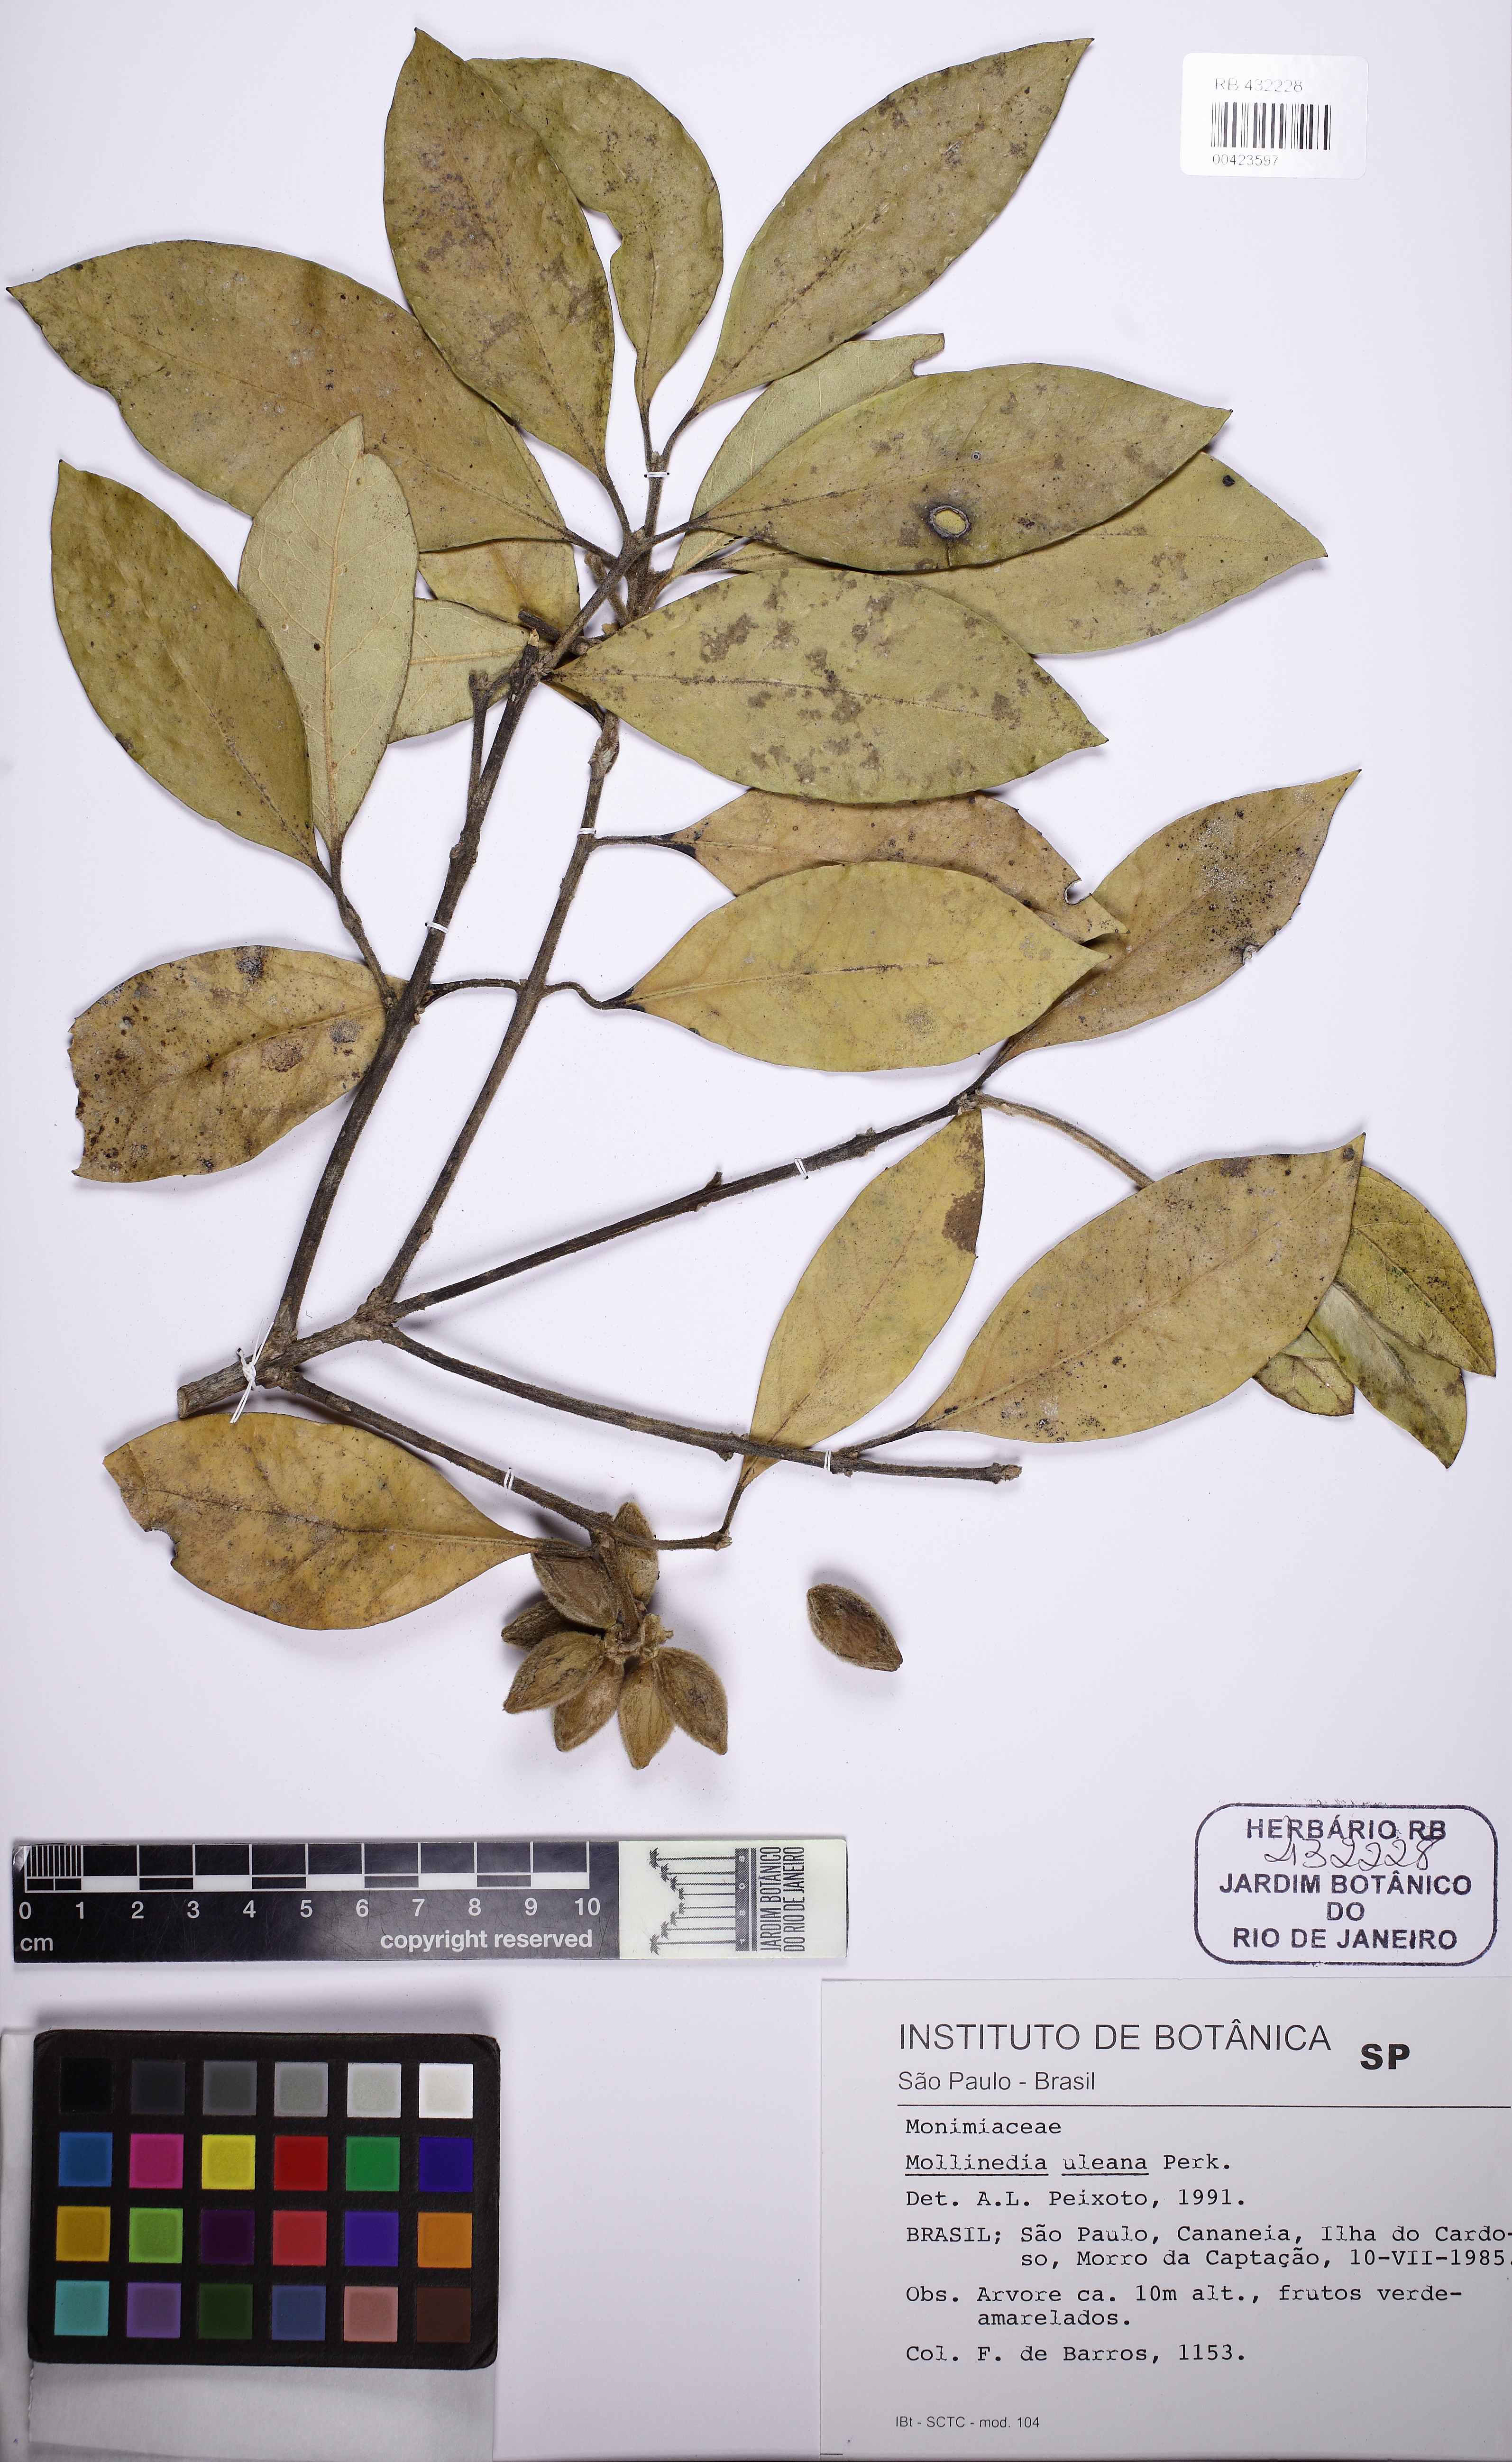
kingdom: Plantae
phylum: Tracheophyta
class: Magnoliopsida
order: Laurales
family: Monimiaceae
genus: Mollinedia
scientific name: Mollinedia uleana
